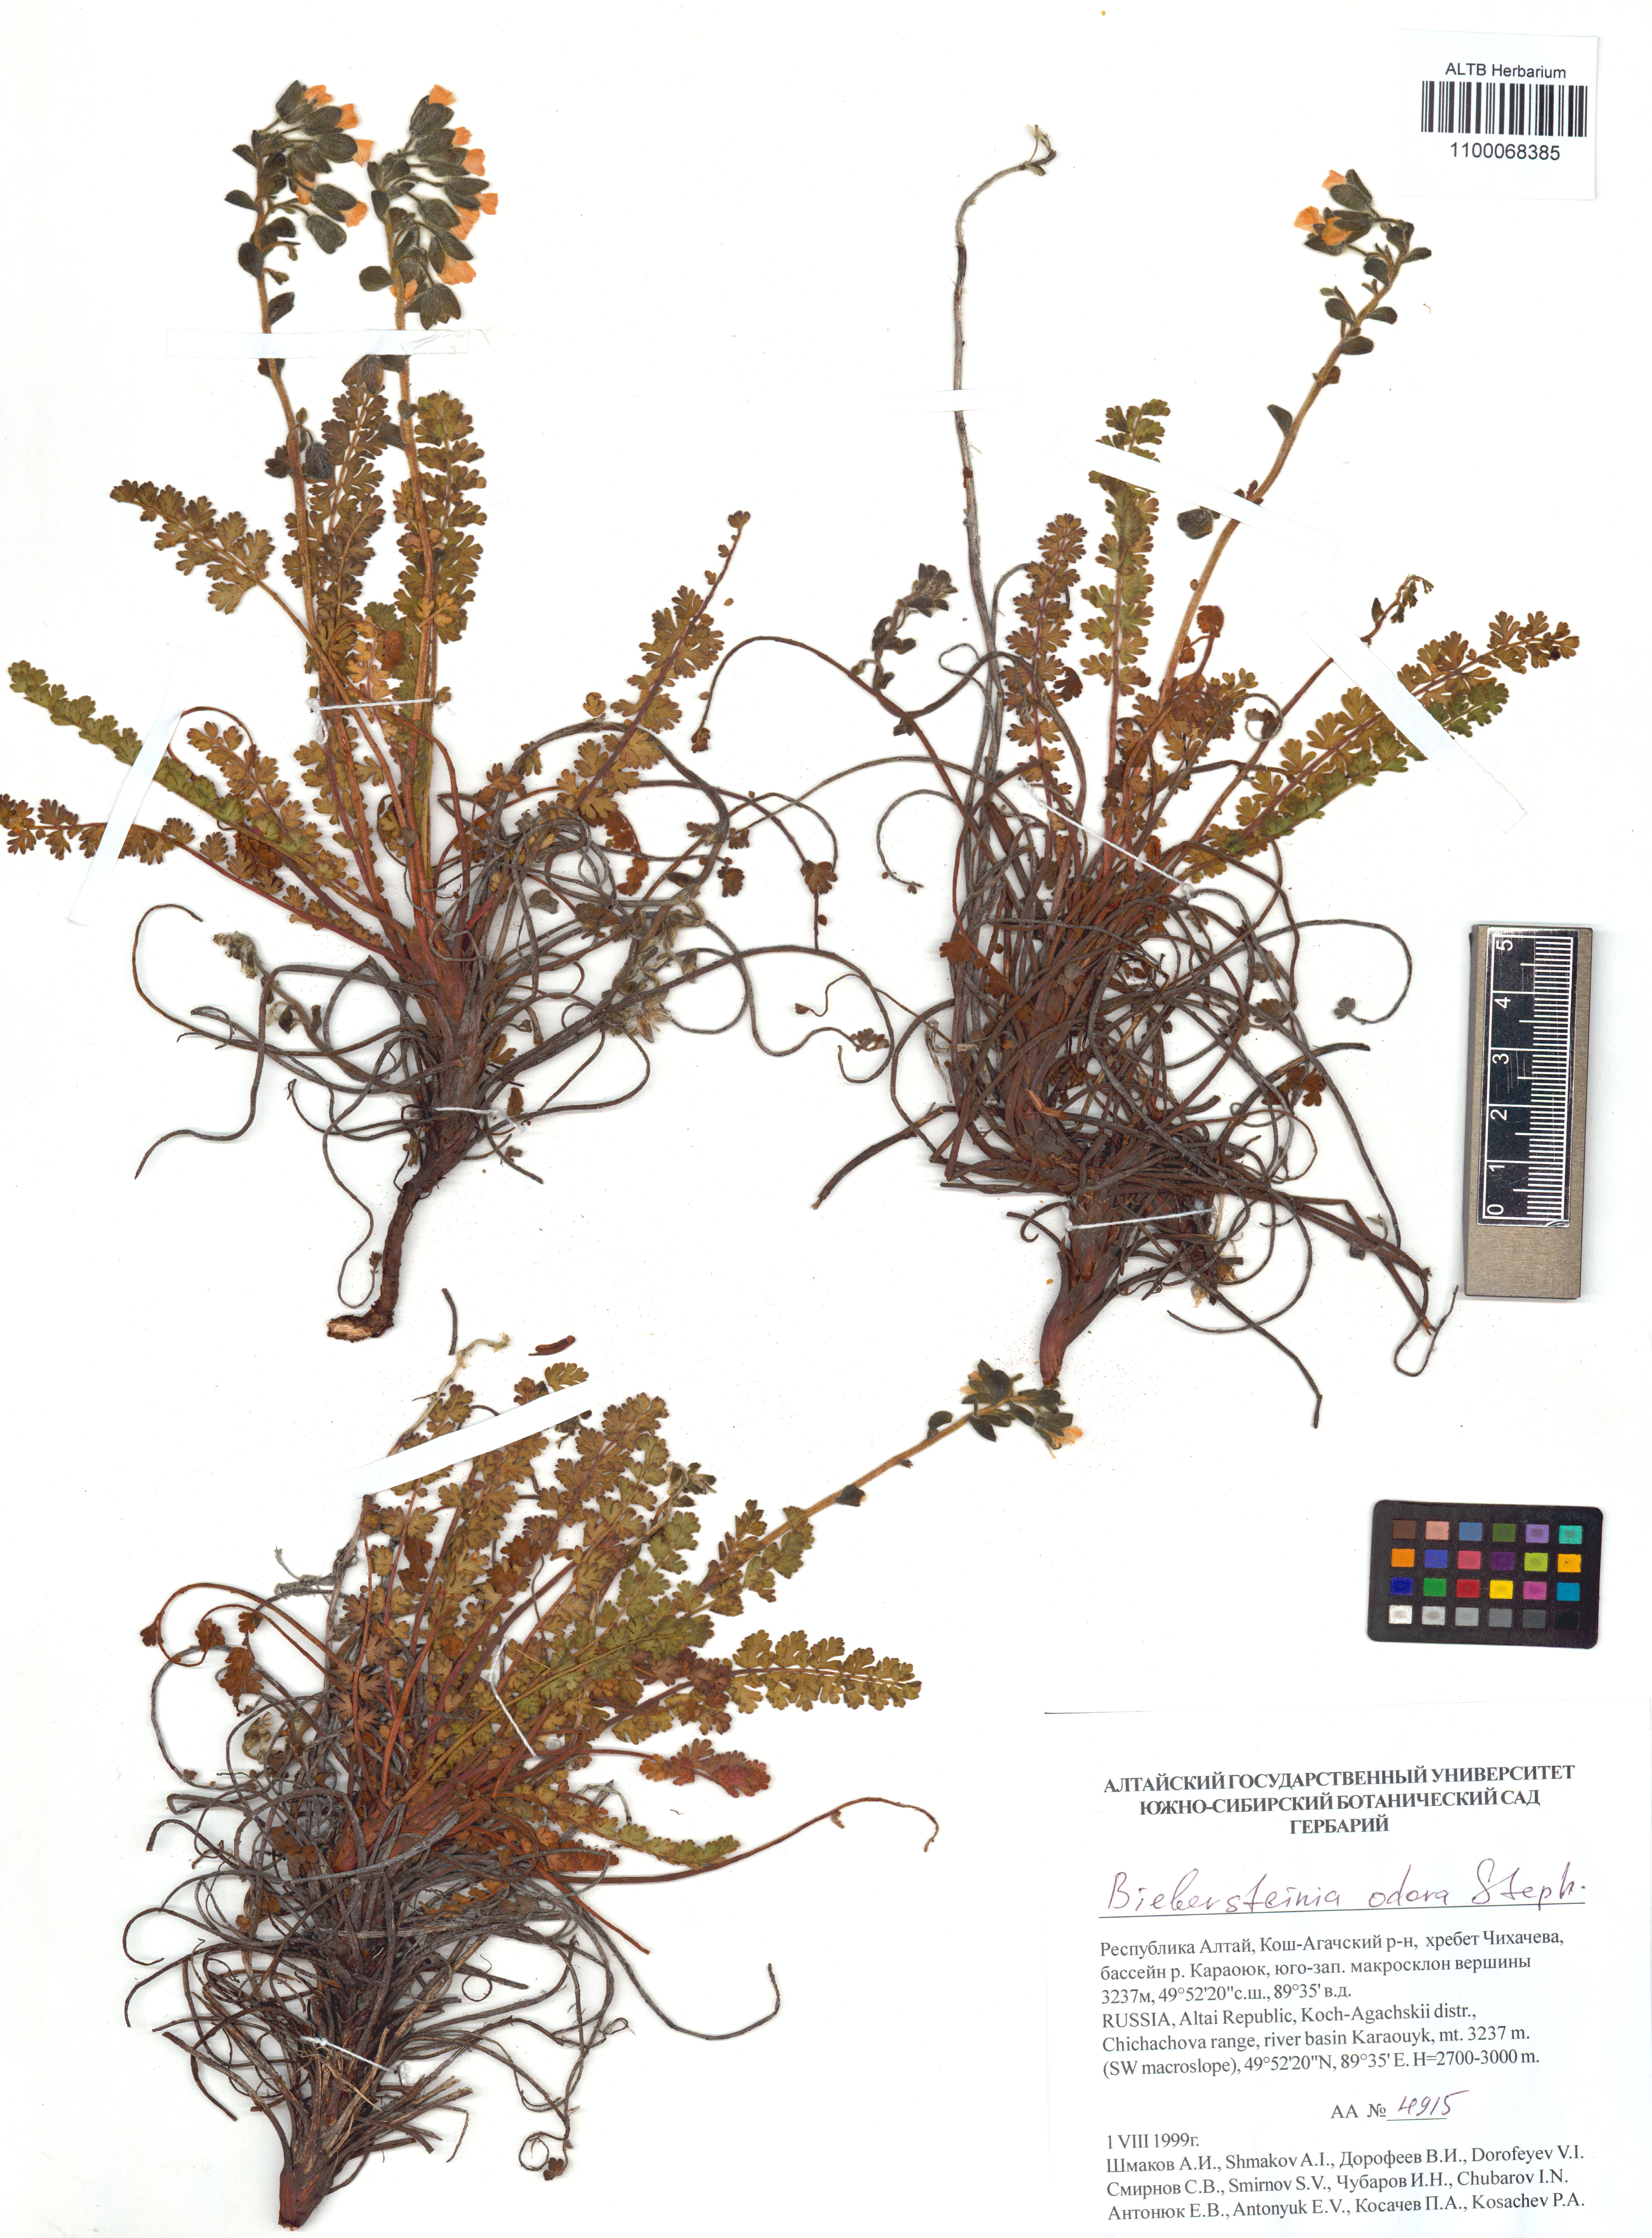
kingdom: Plantae
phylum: Tracheophyta
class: Magnoliopsida
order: Sapindales
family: Biebersteiniaceae
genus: Biebersteinia
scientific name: Biebersteinia odora
